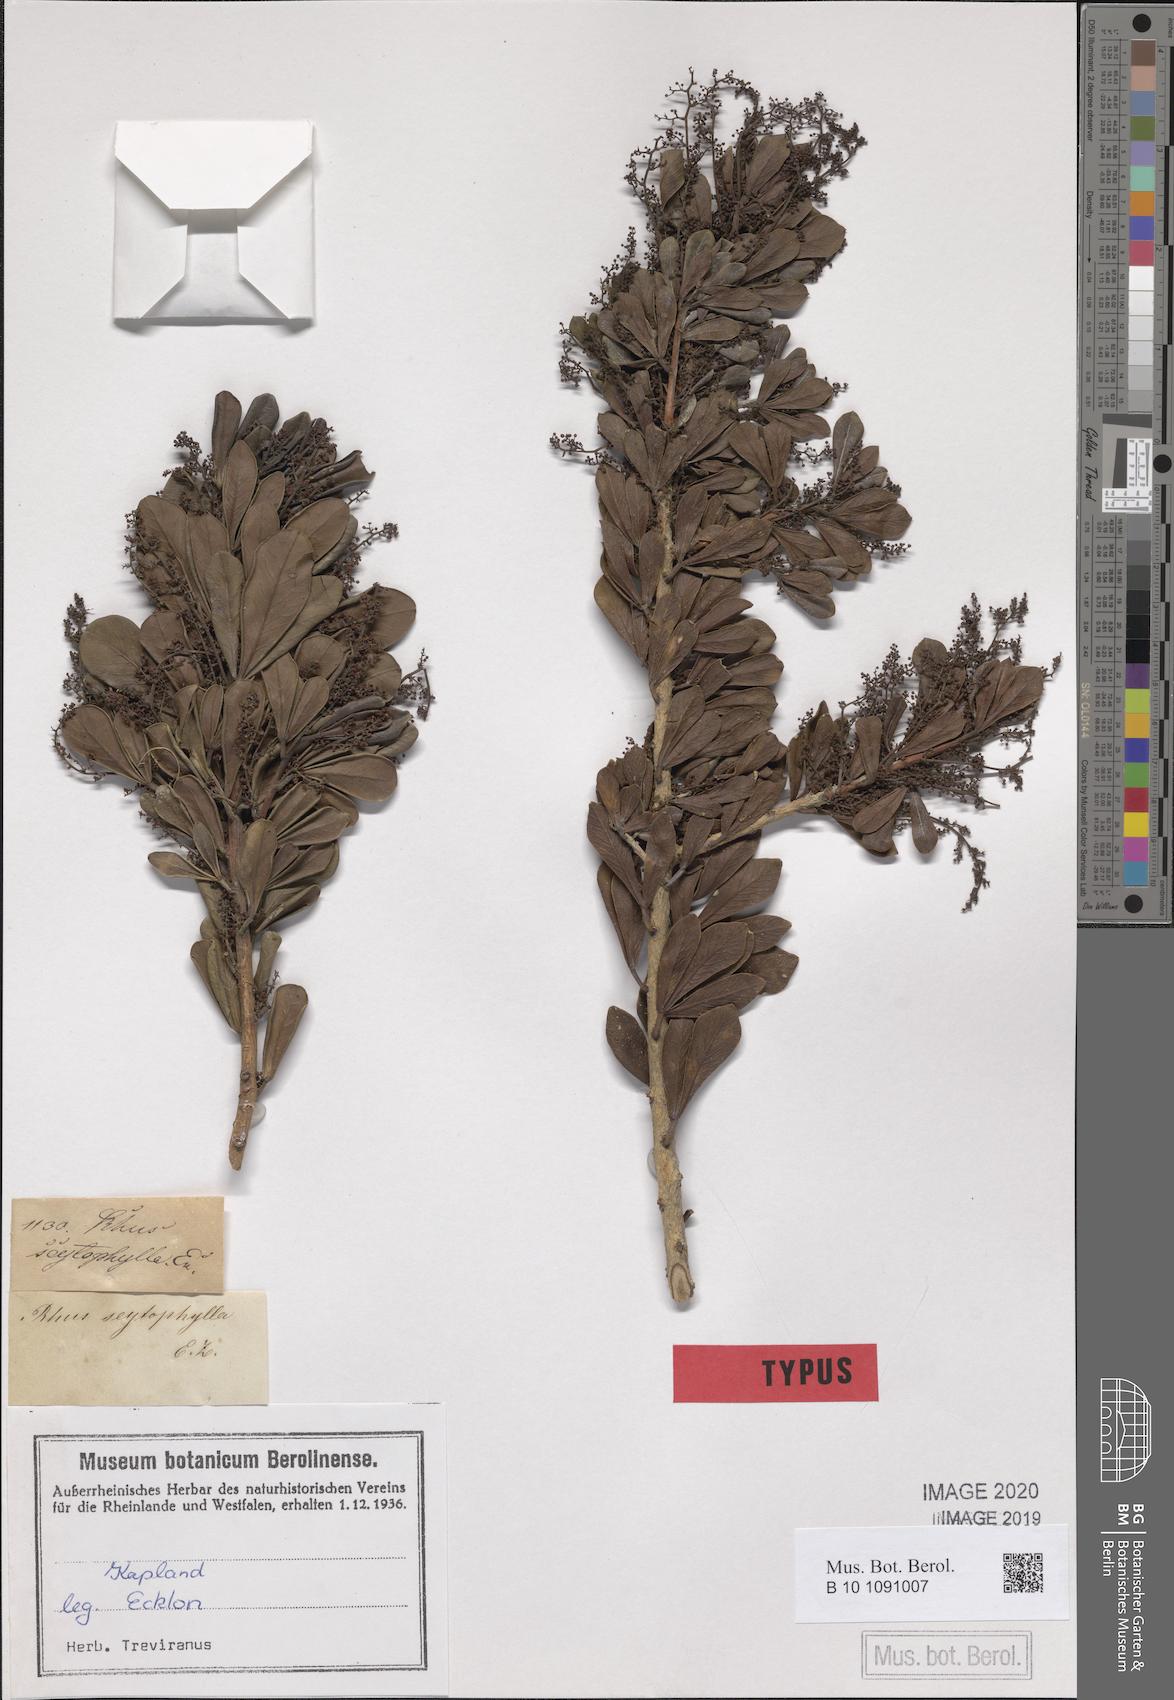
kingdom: Plantae
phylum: Tracheophyta
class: Magnoliopsida
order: Sapindales
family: Anacardiaceae
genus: Searsia
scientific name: Searsia scytophylla
